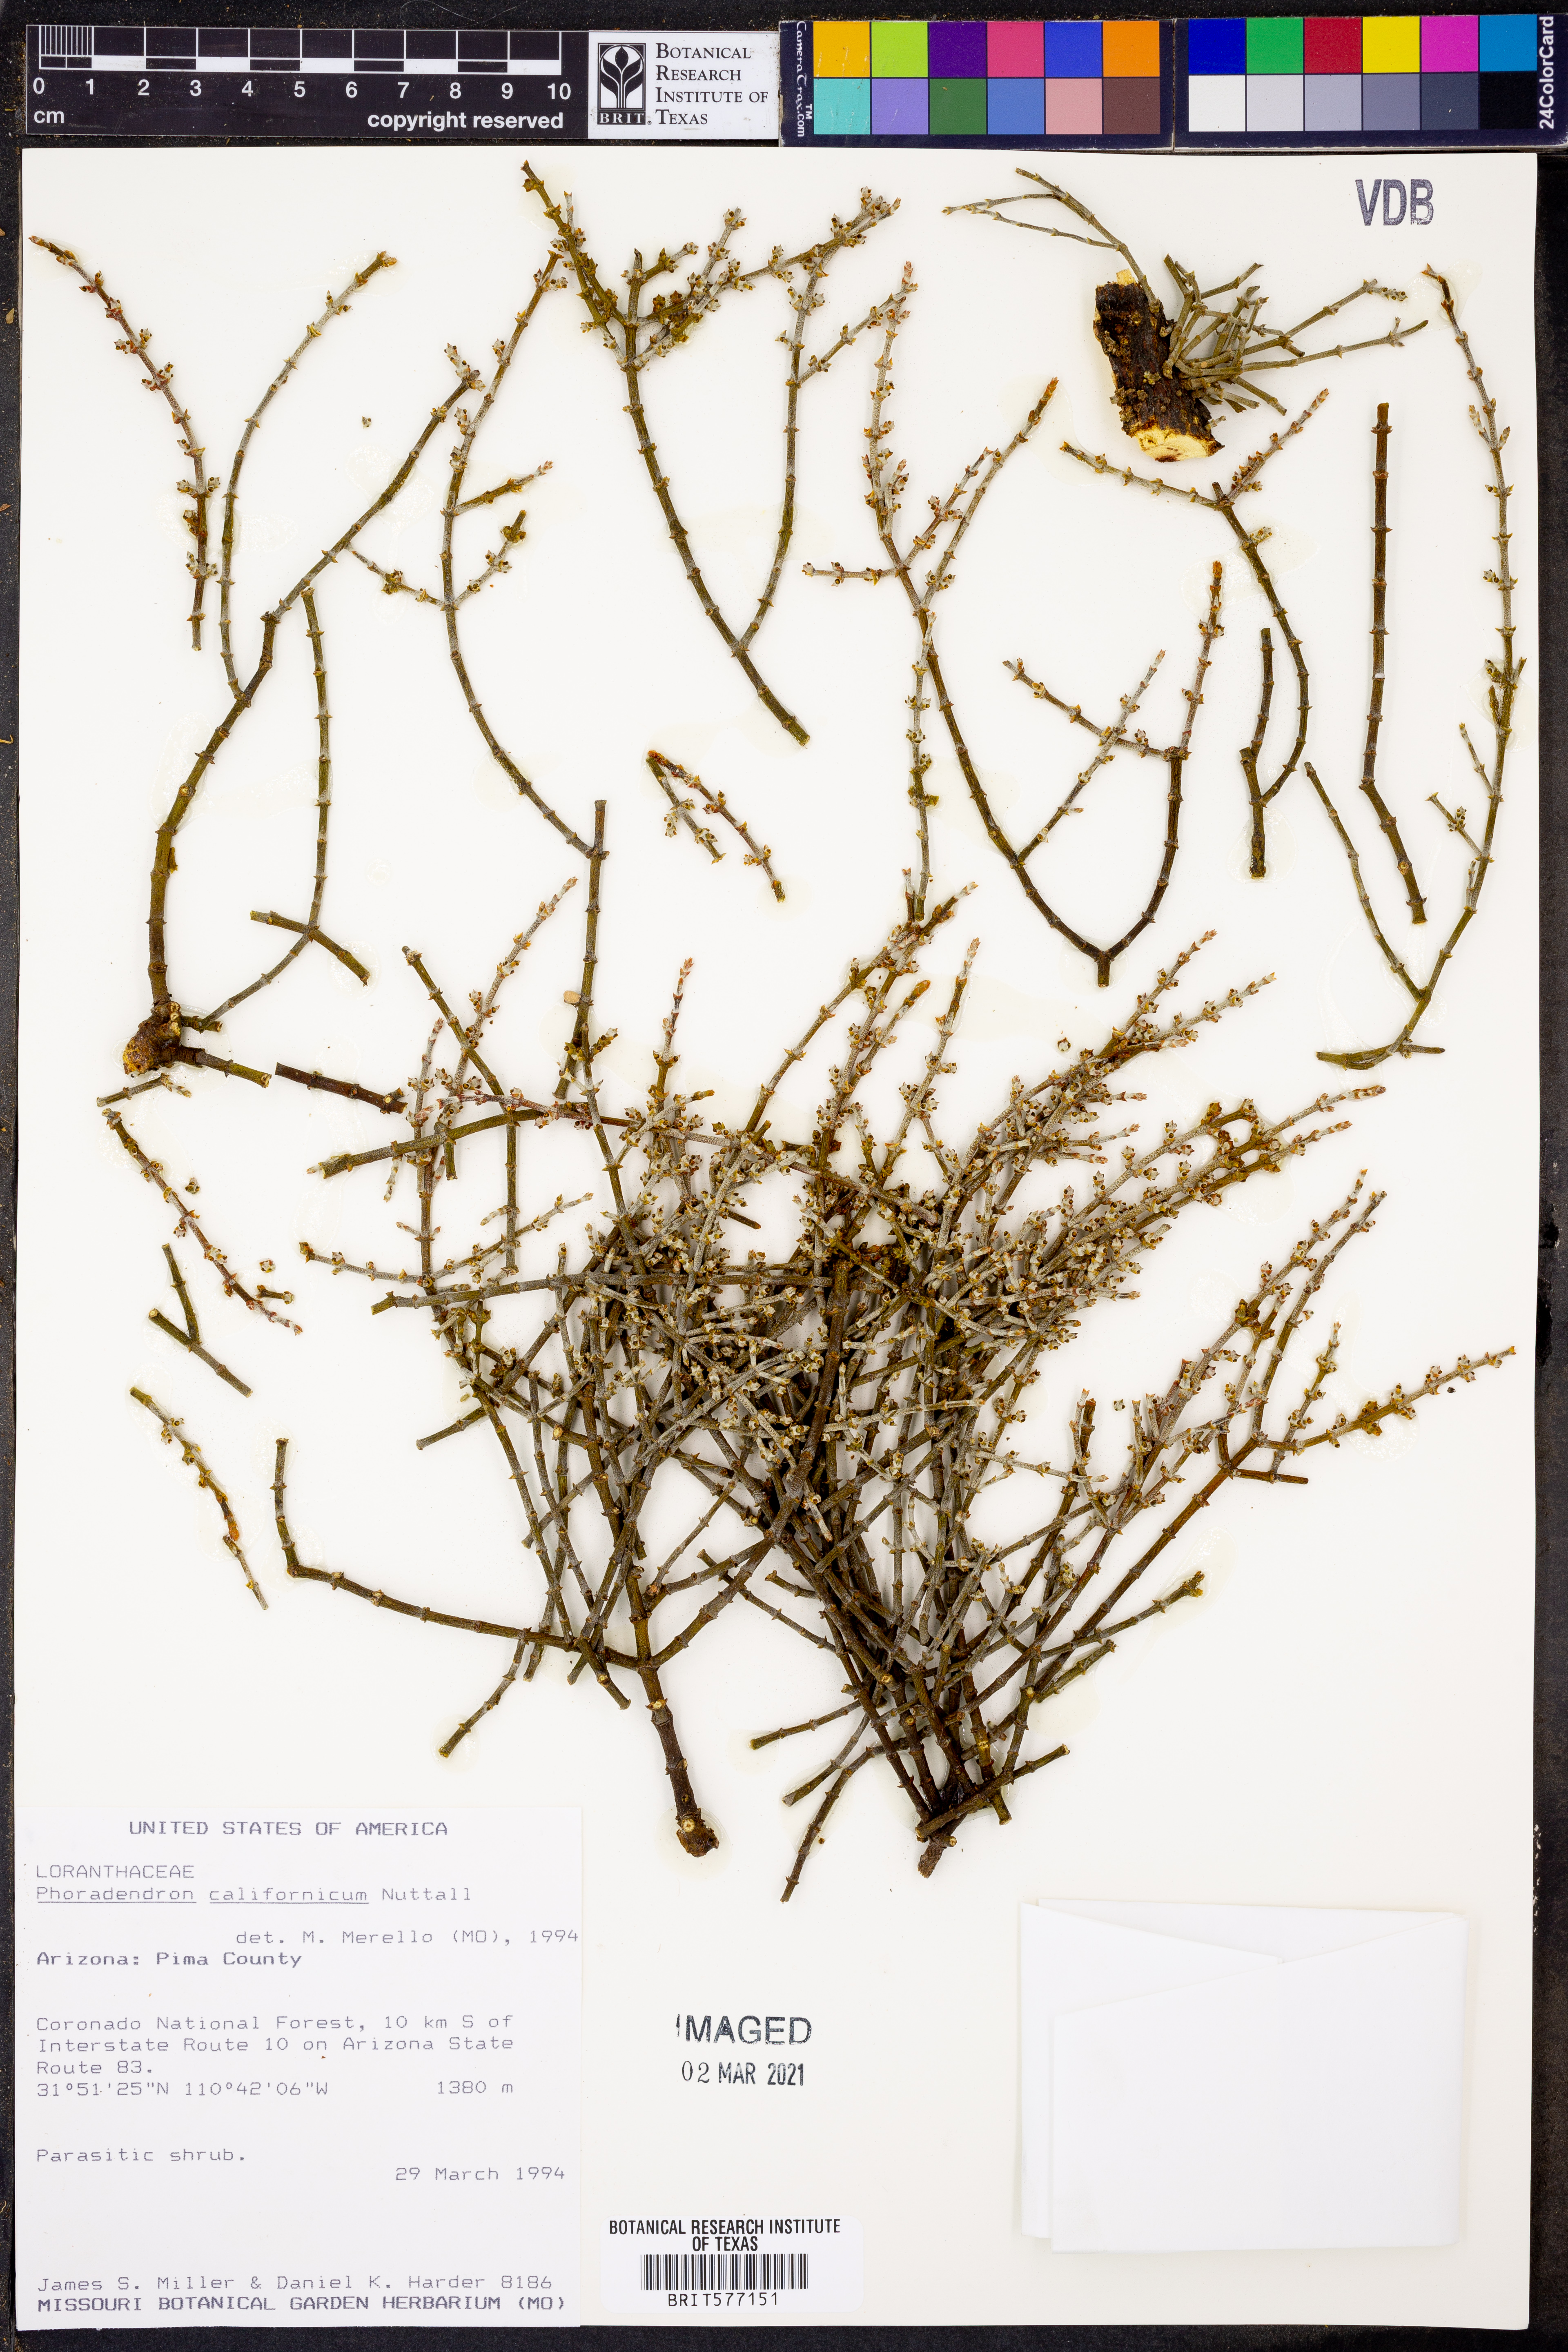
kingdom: Plantae
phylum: Tracheophyta
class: Magnoliopsida
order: Santalales
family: Viscaceae
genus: Phoradendron
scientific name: Phoradendron californicum
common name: Acacia mistletoe
